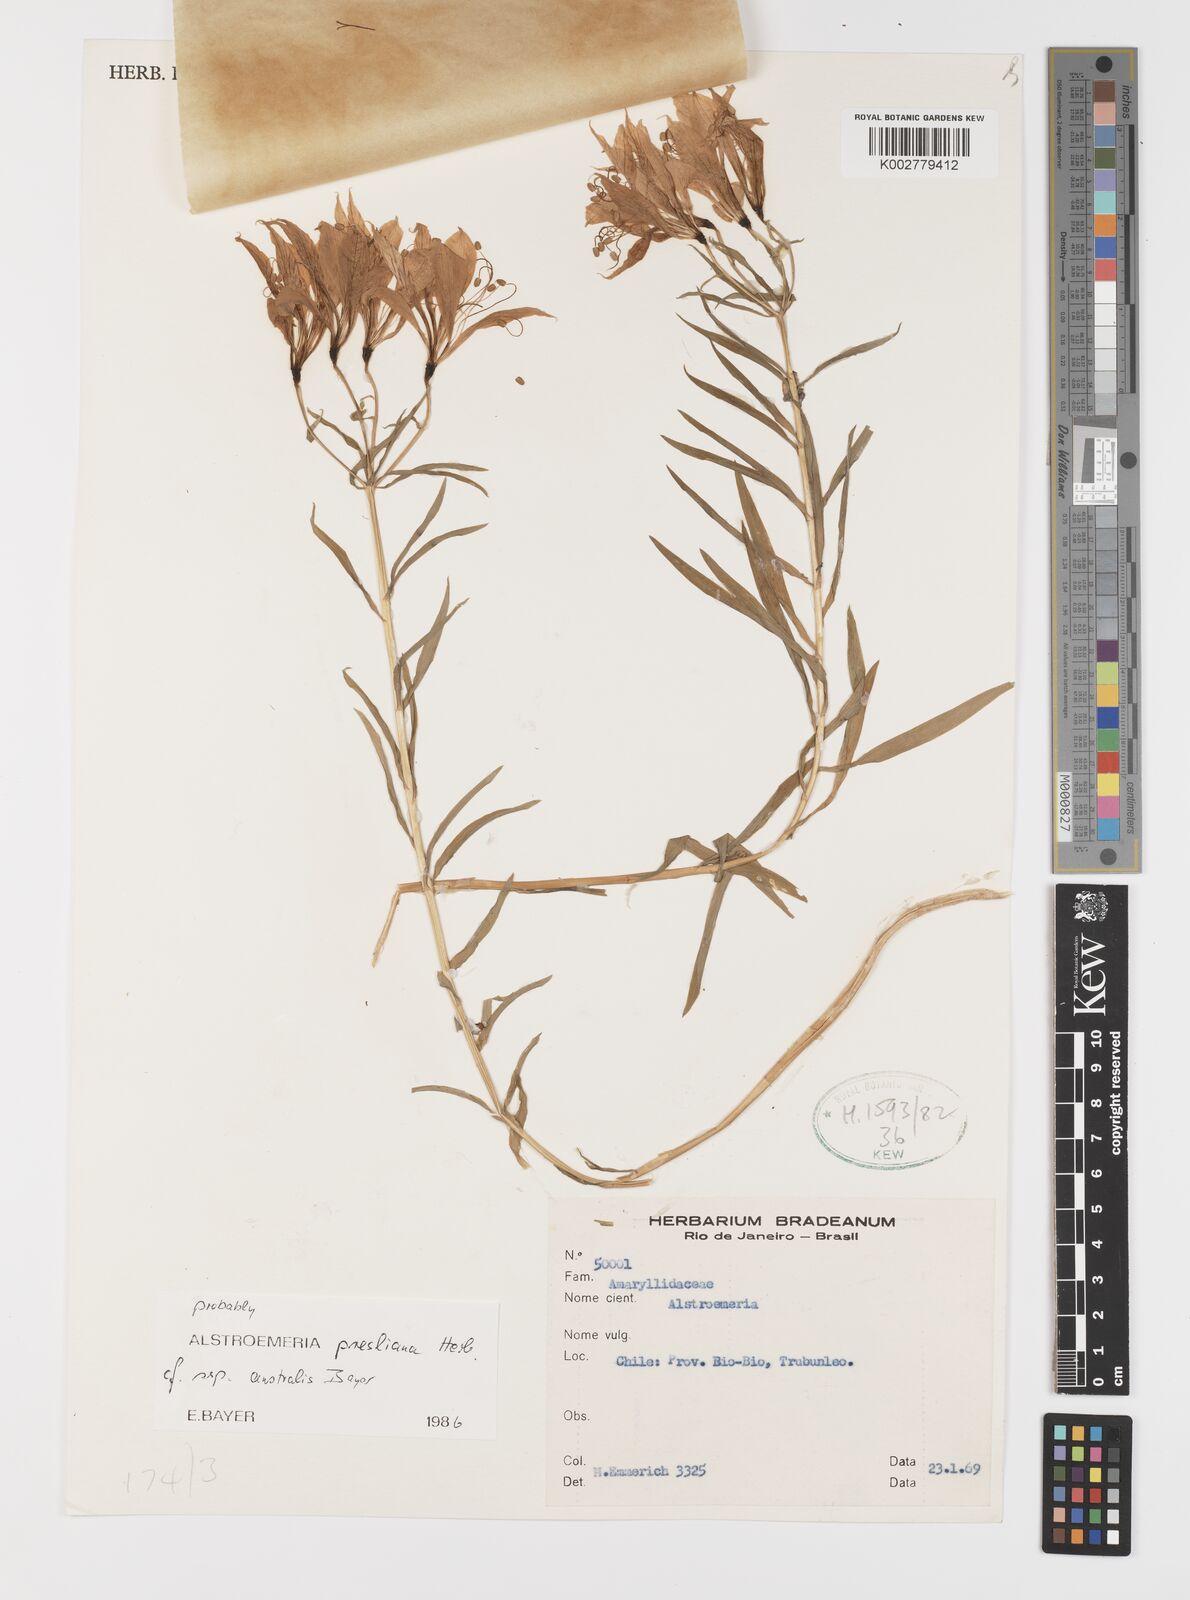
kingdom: Plantae
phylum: Tracheophyta
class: Liliopsida
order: Liliales
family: Alstroemeriaceae
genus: Alstroemeria
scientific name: Alstroemeria presliana
